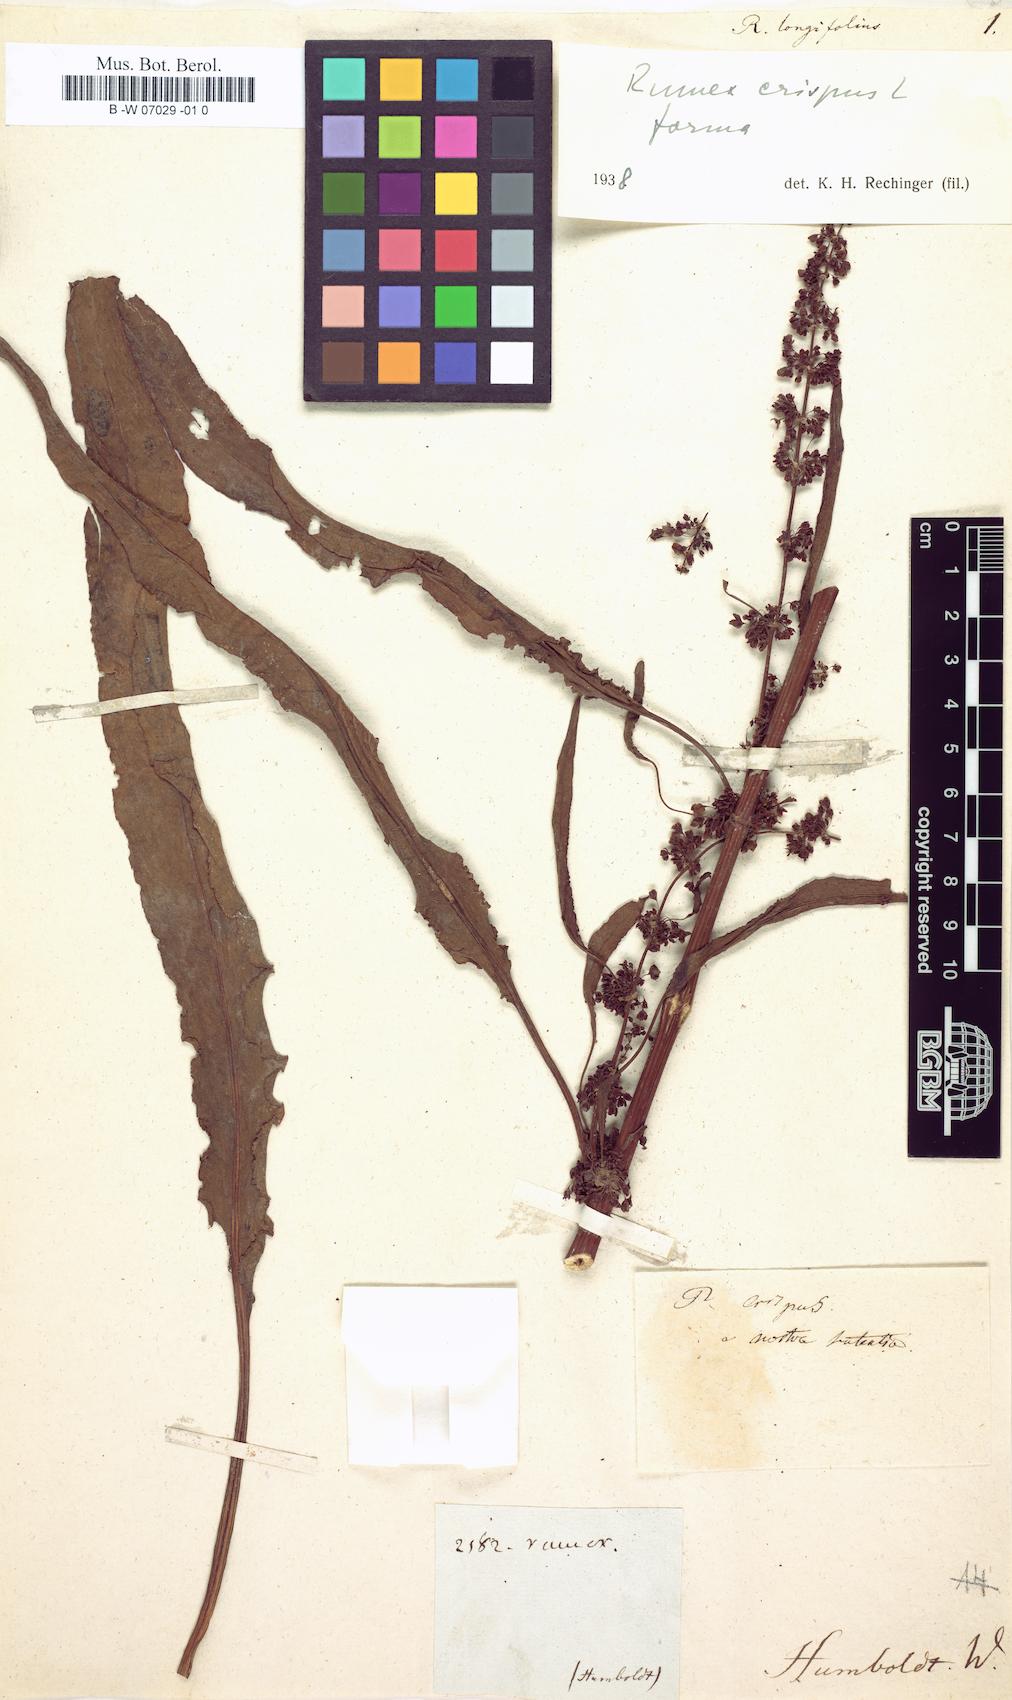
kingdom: Plantae
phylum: Tracheophyta
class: Magnoliopsida
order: Caryophyllales
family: Polygonaceae
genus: Rumex
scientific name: Rumex longifolius
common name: Dooryard dock
